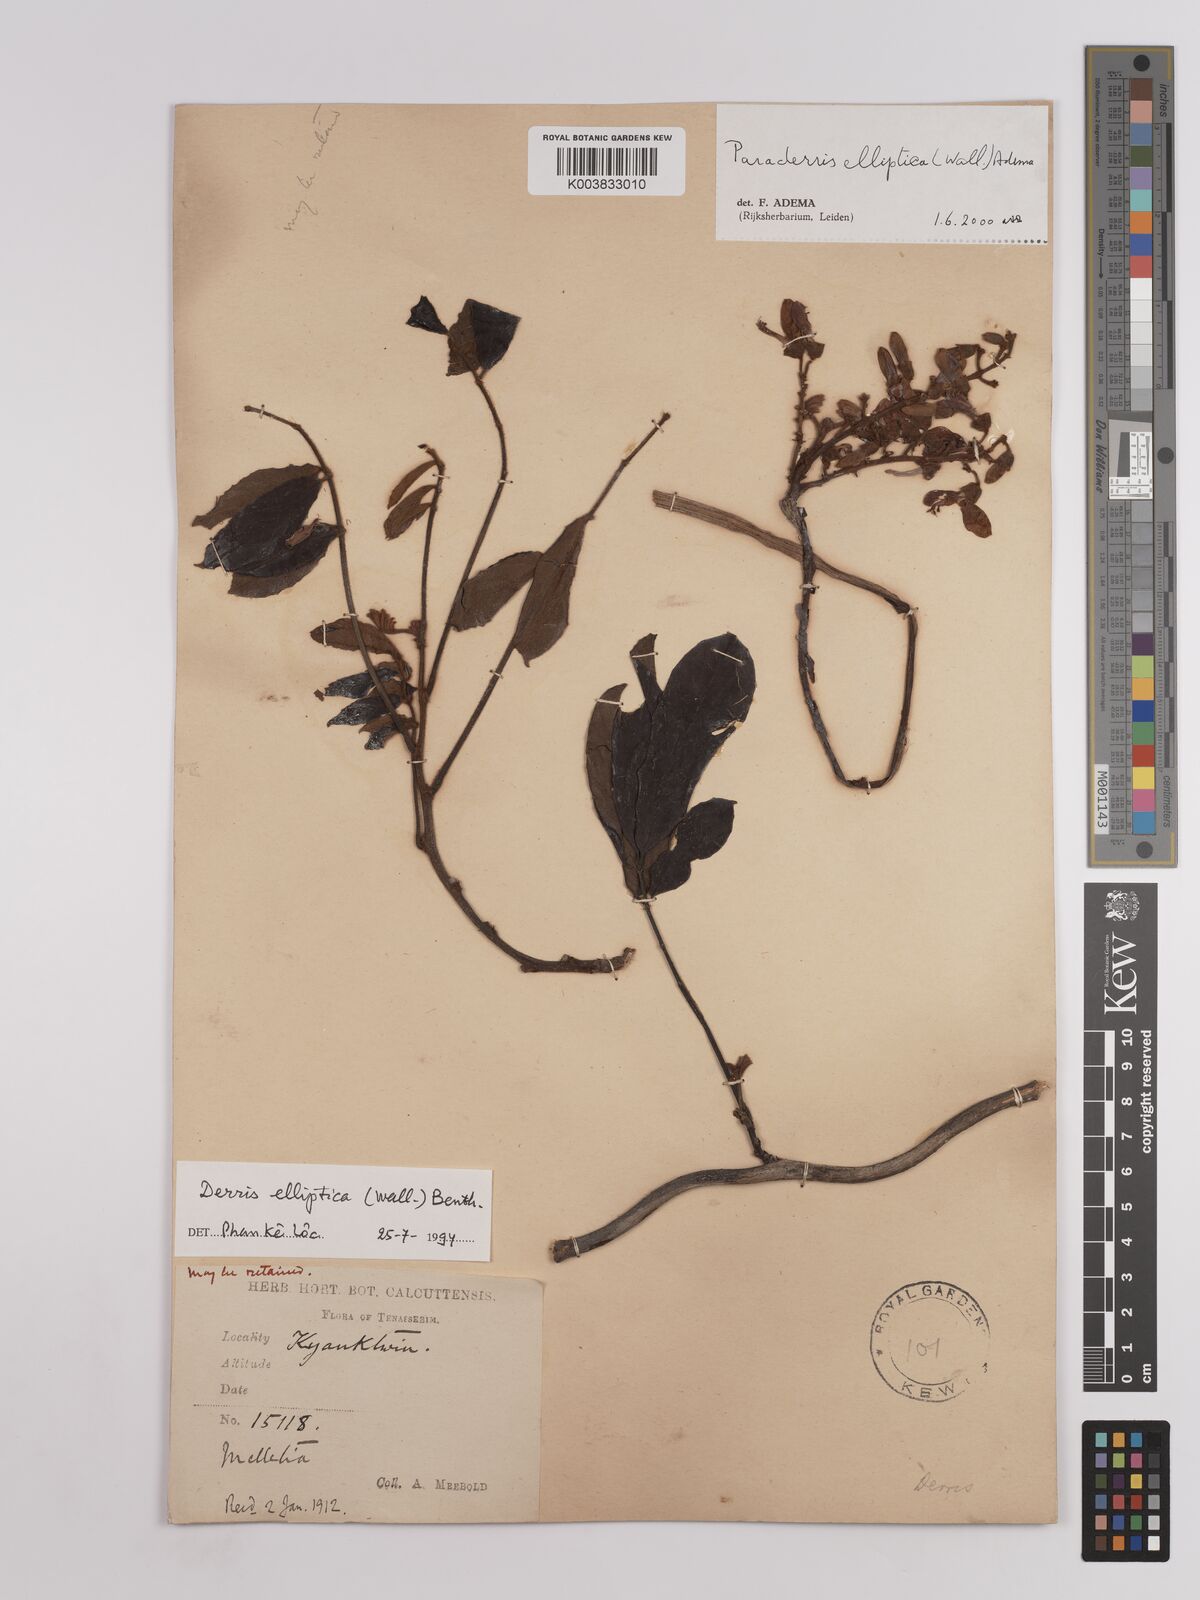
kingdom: Plantae
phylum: Tracheophyta
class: Magnoliopsida
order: Fabales
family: Fabaceae
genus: Derris
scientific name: Derris elliptica
